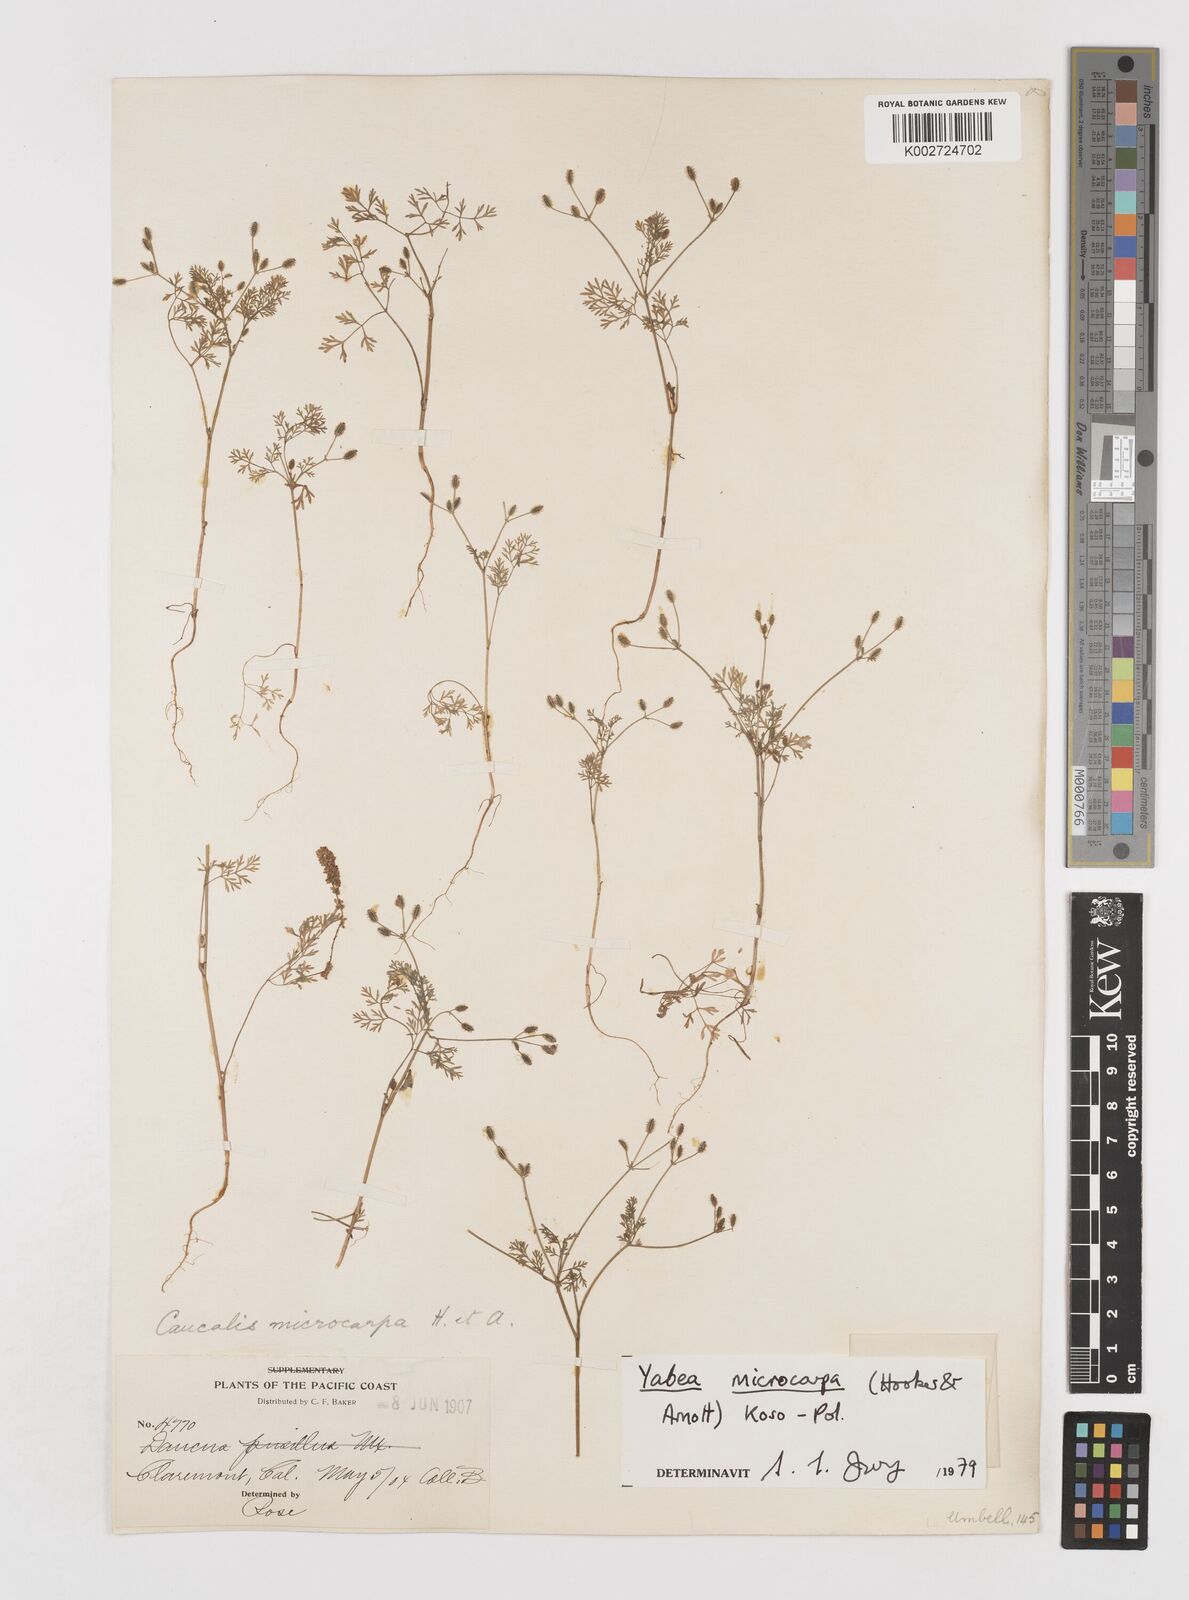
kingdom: Plantae
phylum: Tracheophyta
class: Magnoliopsida
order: Apiales
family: Apiaceae
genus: Yabea
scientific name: Yabea microcarpa
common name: False carrot
